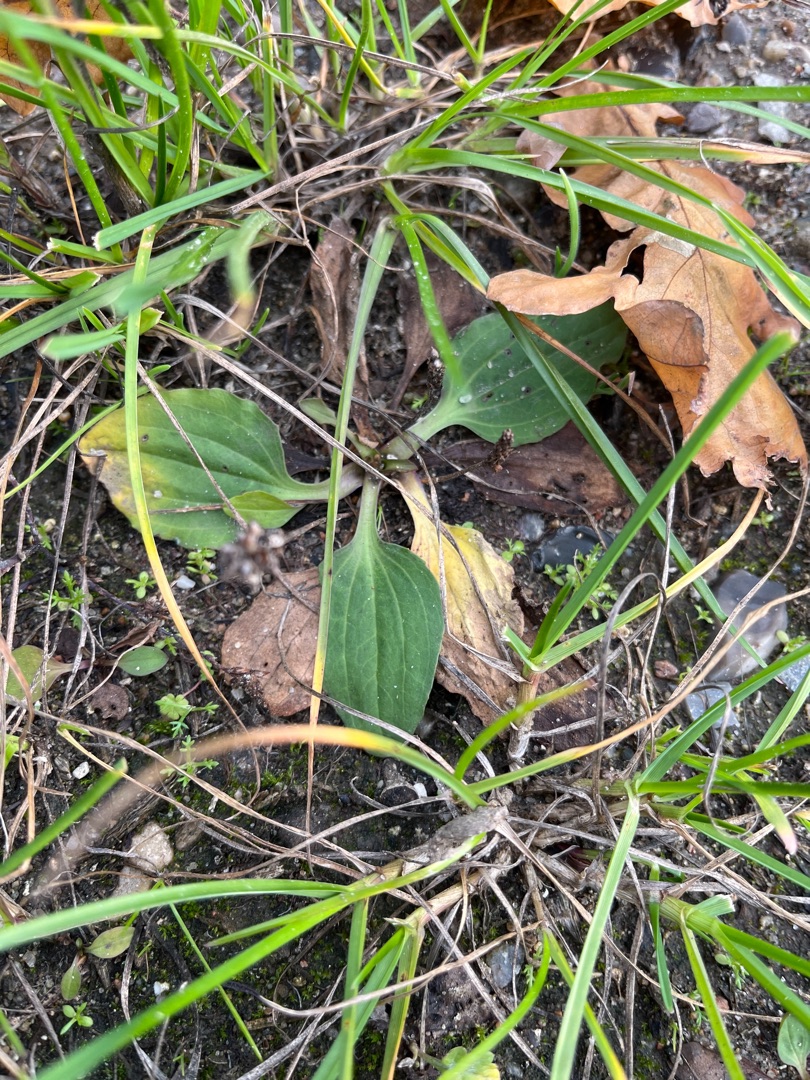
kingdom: Plantae
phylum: Tracheophyta
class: Magnoliopsida
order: Lamiales
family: Plantaginaceae
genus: Plantago
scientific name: Plantago major
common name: Glat vejbred
